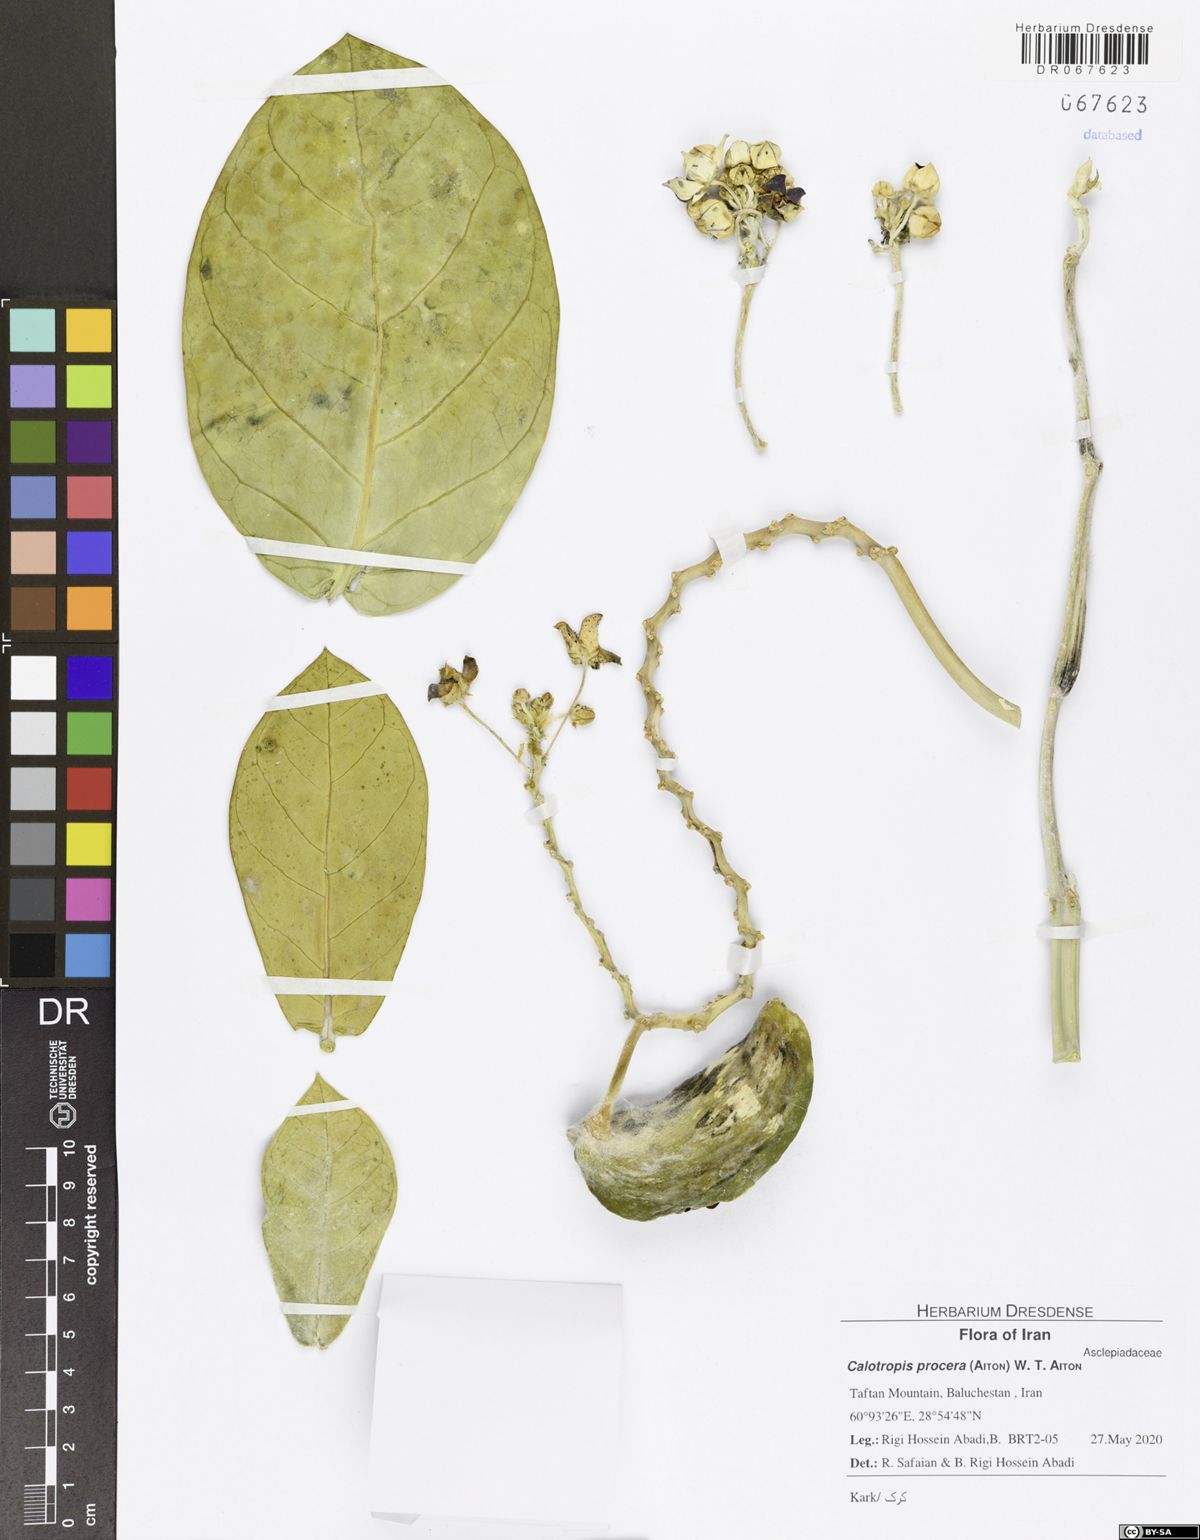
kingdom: Plantae
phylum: Tracheophyta
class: Magnoliopsida
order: Gentianales
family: Apocynaceae
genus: Calotropis
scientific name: Calotropis procera
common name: Roostertree
